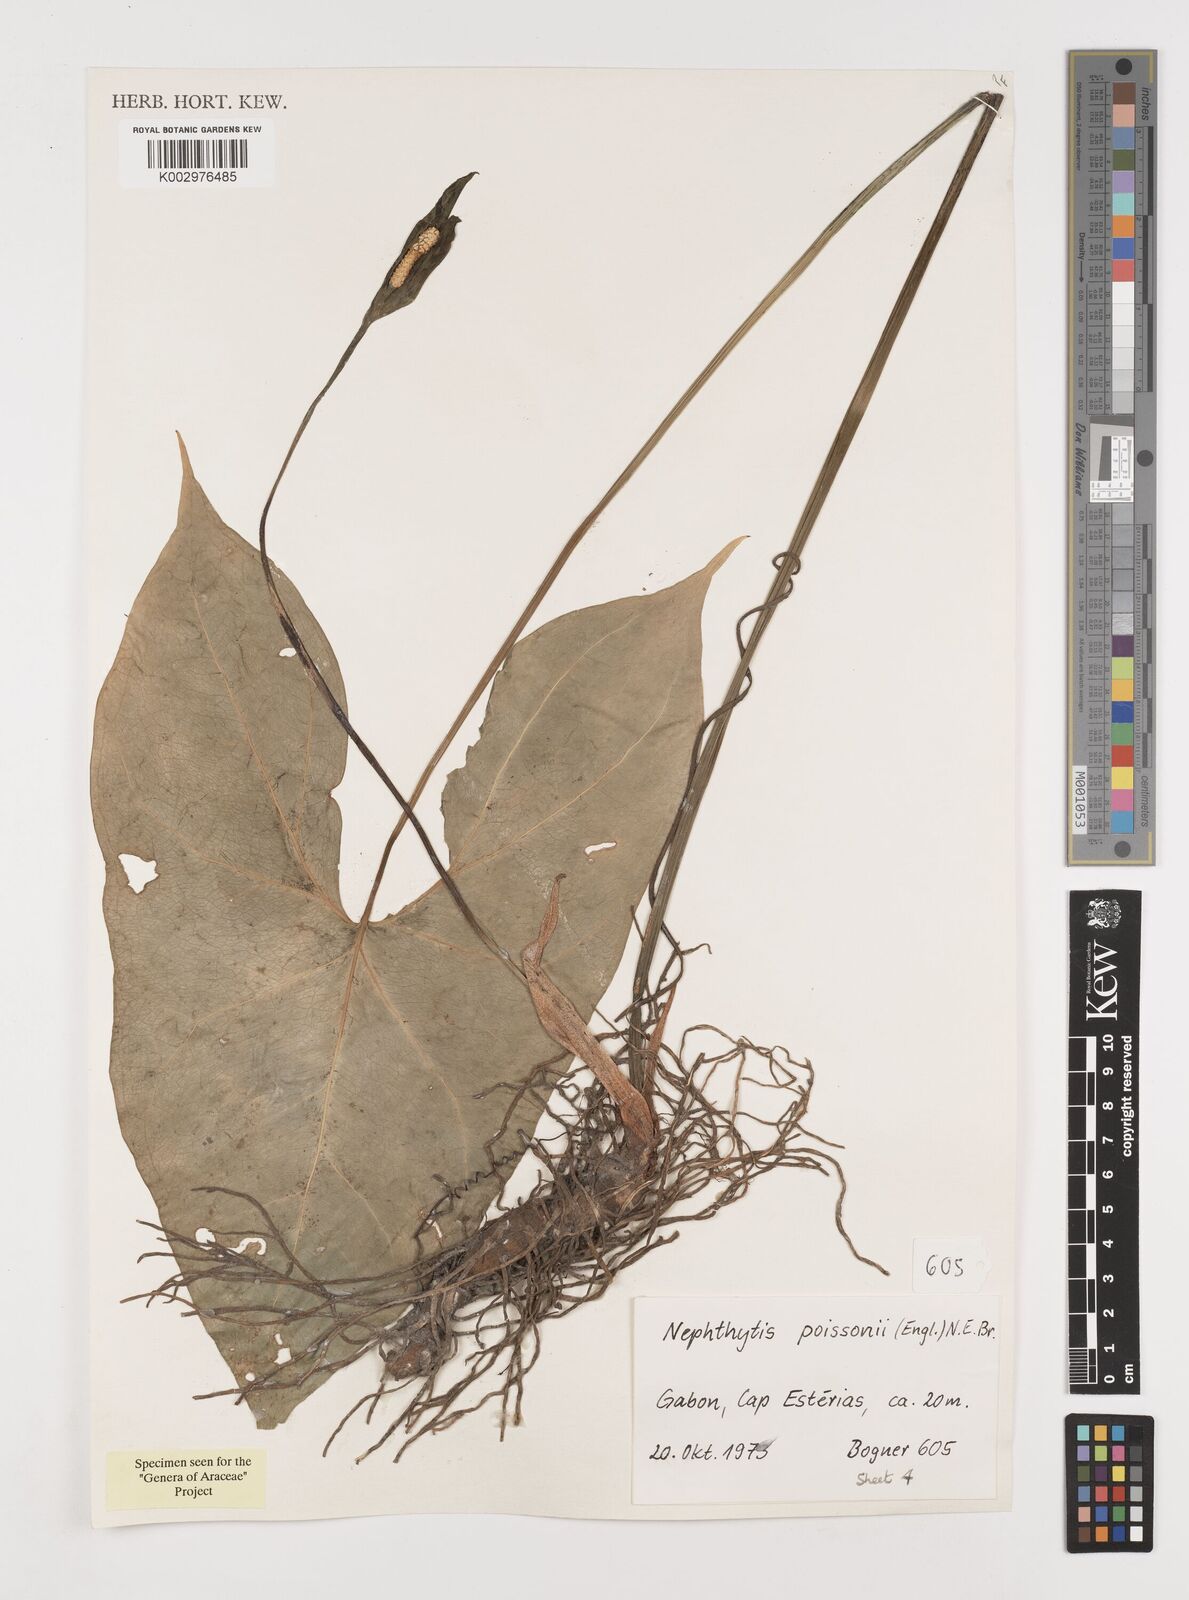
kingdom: Plantae
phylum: Tracheophyta
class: Liliopsida
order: Alismatales
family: Araceae
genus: Nephthytis
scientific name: Nephthytis poissonii
